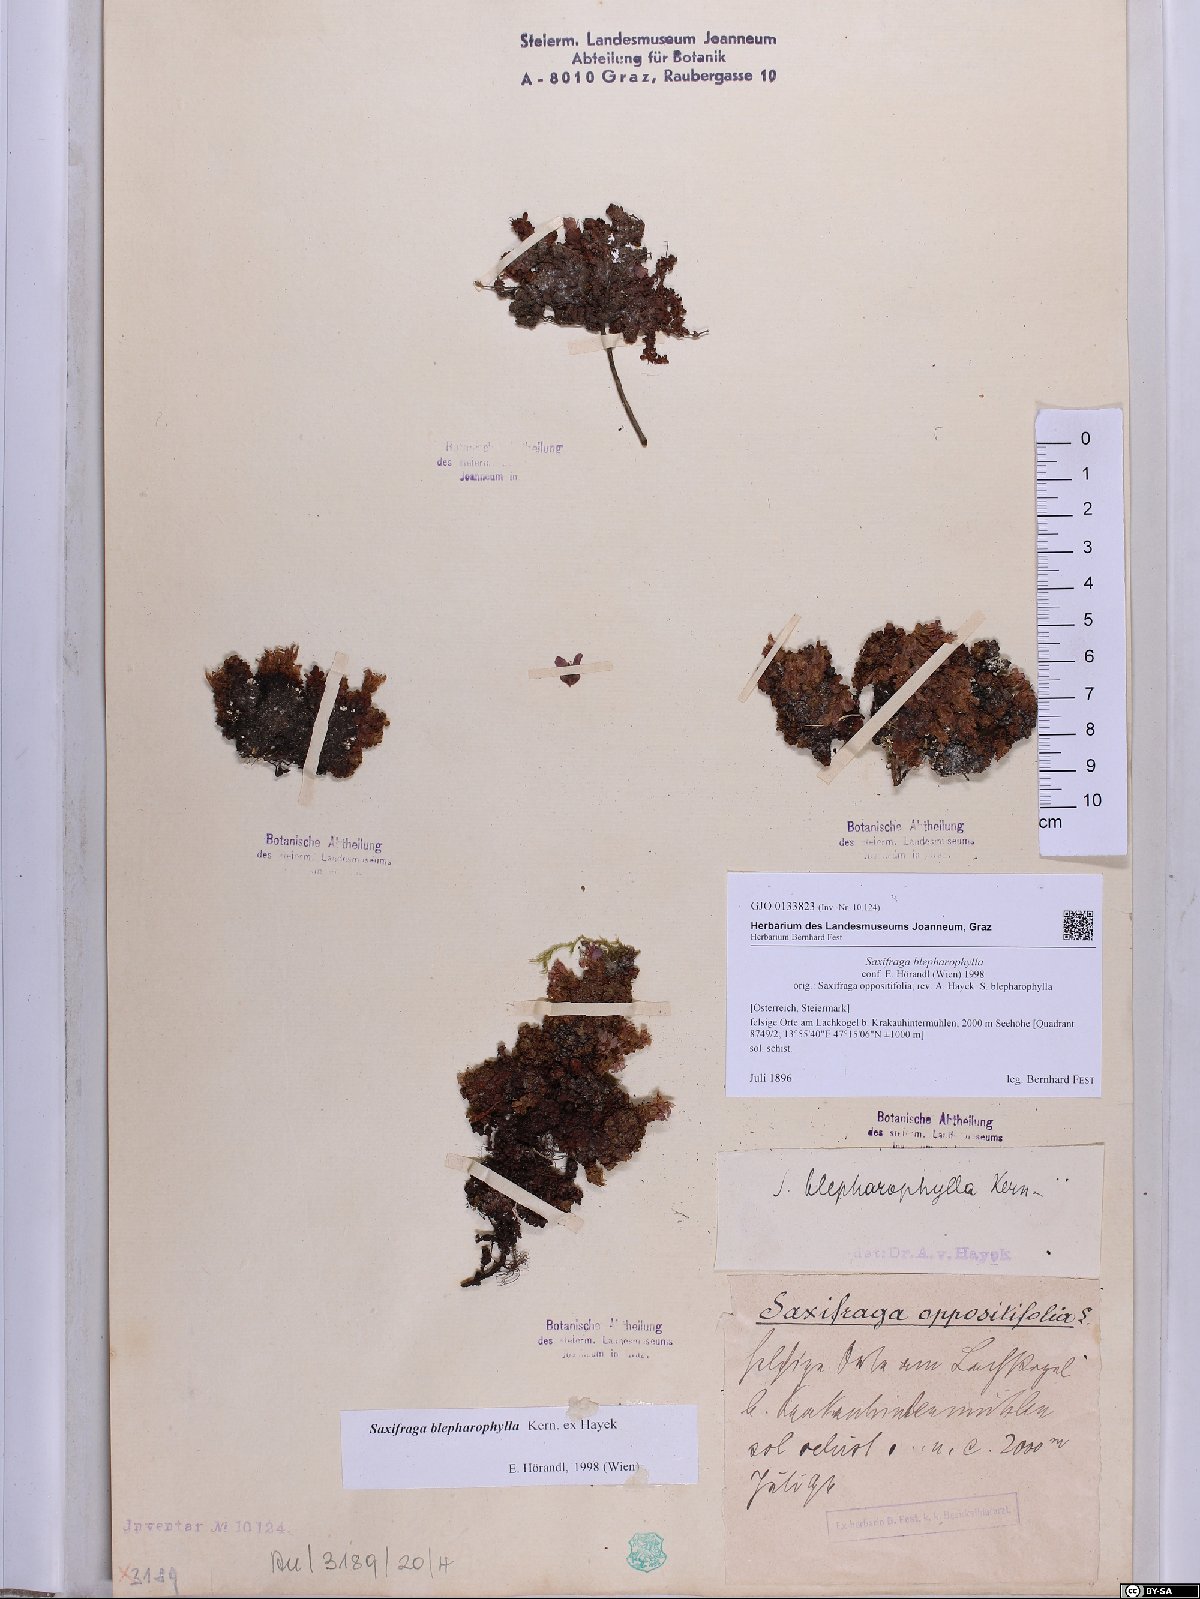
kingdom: Plantae
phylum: Tracheophyta
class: Magnoliopsida
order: Saxifragales
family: Saxifragaceae
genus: Saxifraga
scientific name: Saxifraga oppositifolia
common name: Purple saxifrage
